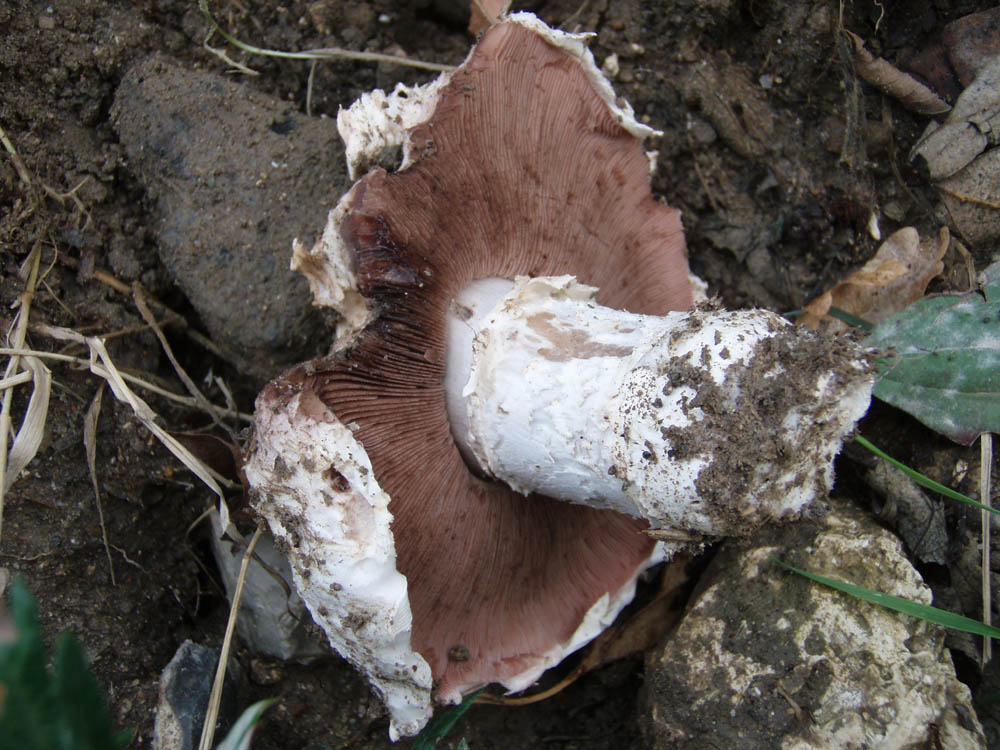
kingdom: Fungi
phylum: Basidiomycota
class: Agaricomycetes
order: Agaricales
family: Agaricaceae
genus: Agaricus
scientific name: Agaricus bitorquis
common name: vej-champignon
